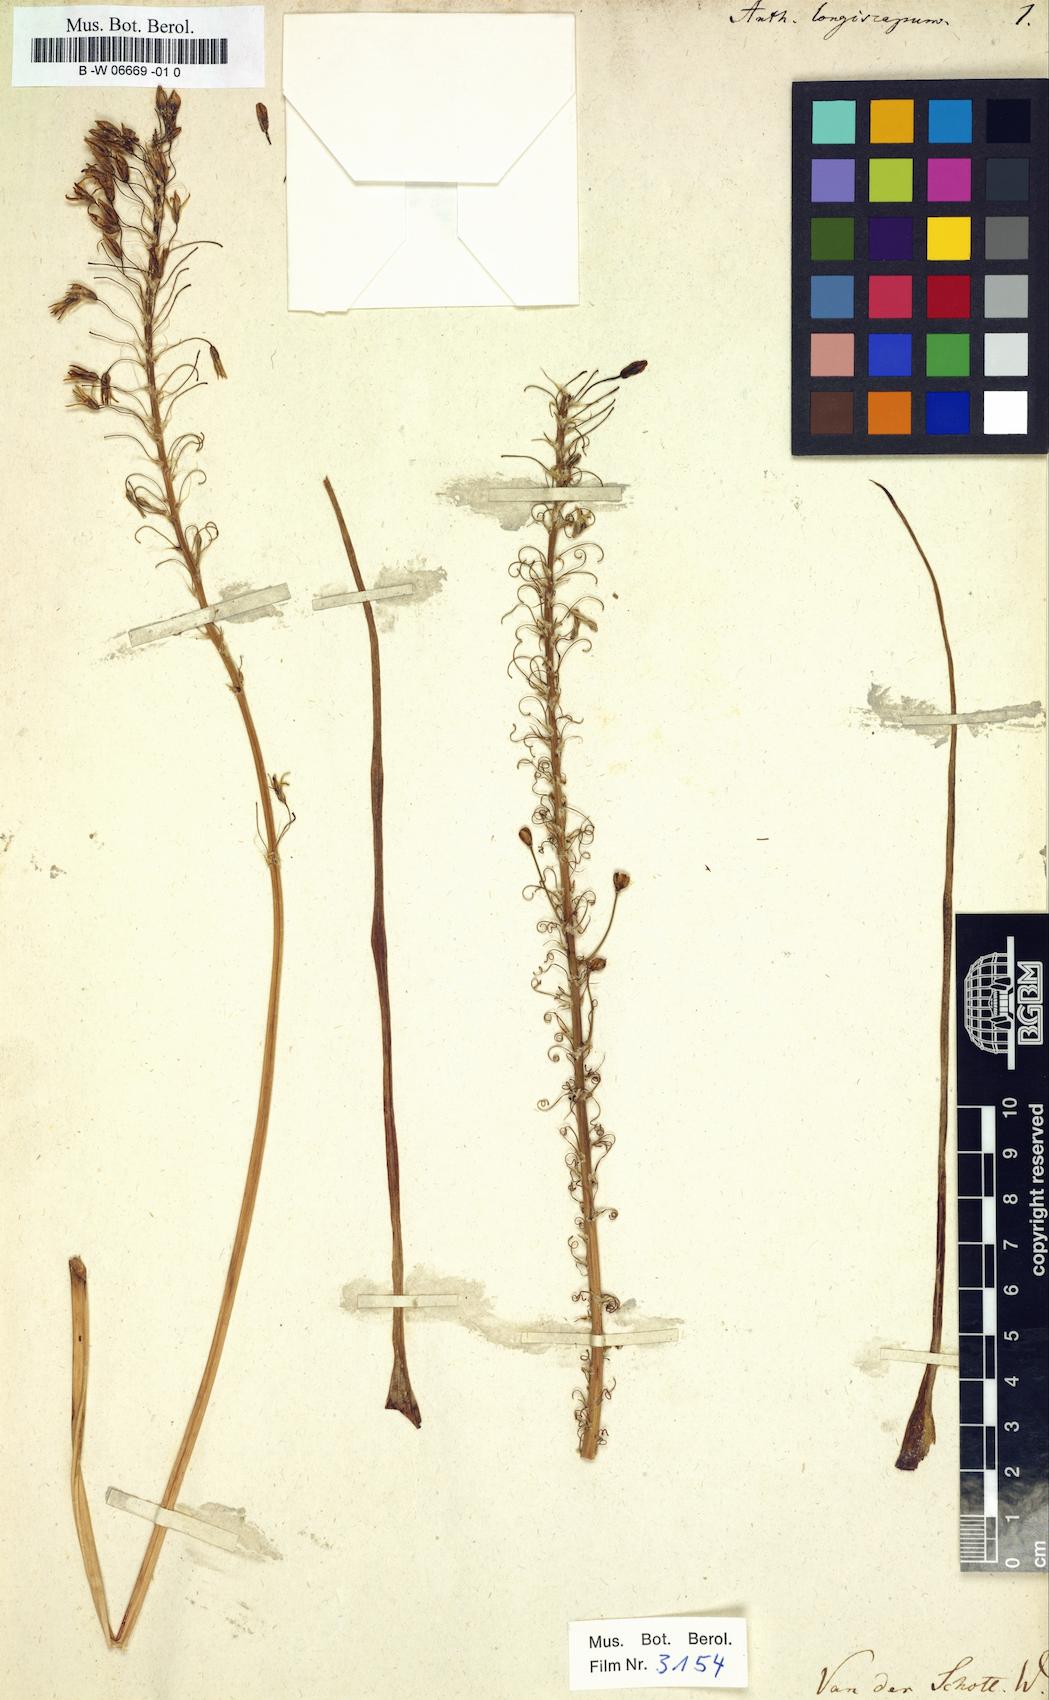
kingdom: Plantae
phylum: Tracheophyta
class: Liliopsida
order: Asparagales
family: Asphodelaceae
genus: Bulbine
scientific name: Bulbine asphodeloides
